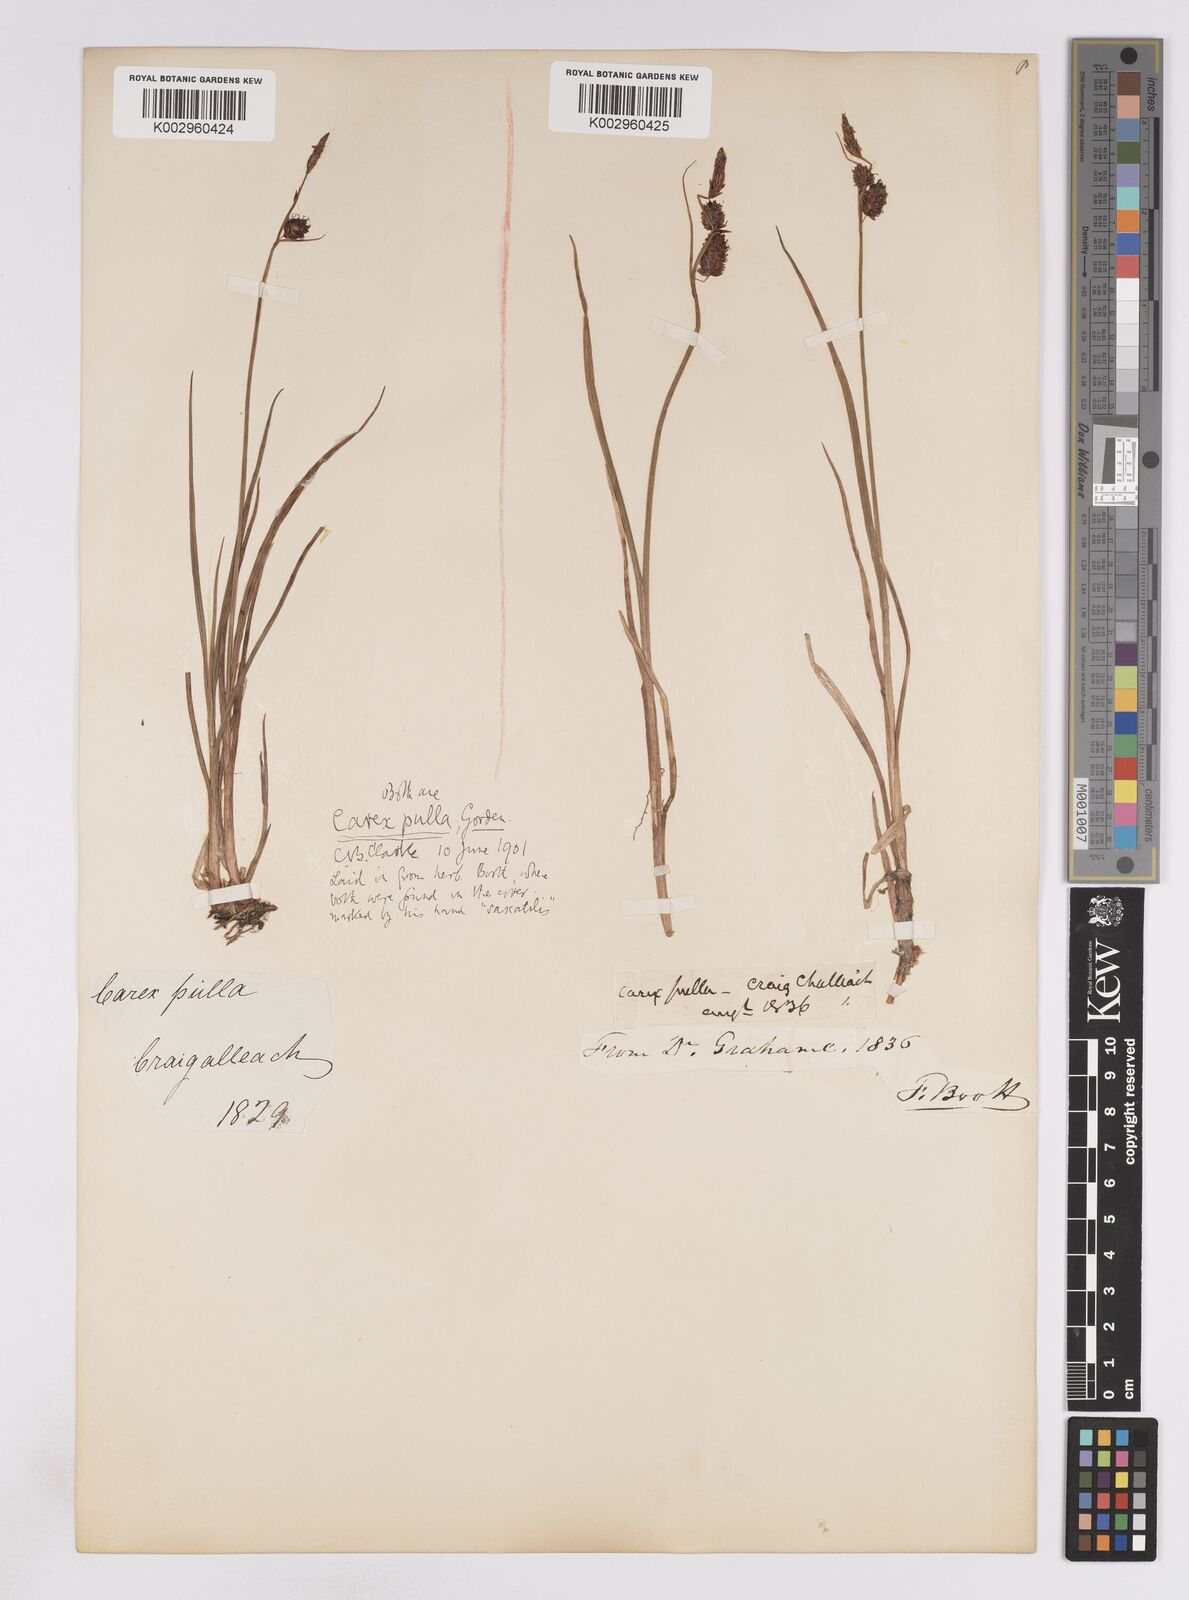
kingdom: Plantae
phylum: Tracheophyta
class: Liliopsida
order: Poales
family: Cyperaceae
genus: Carex
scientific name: Carex saxatilis
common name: Russet sedge
